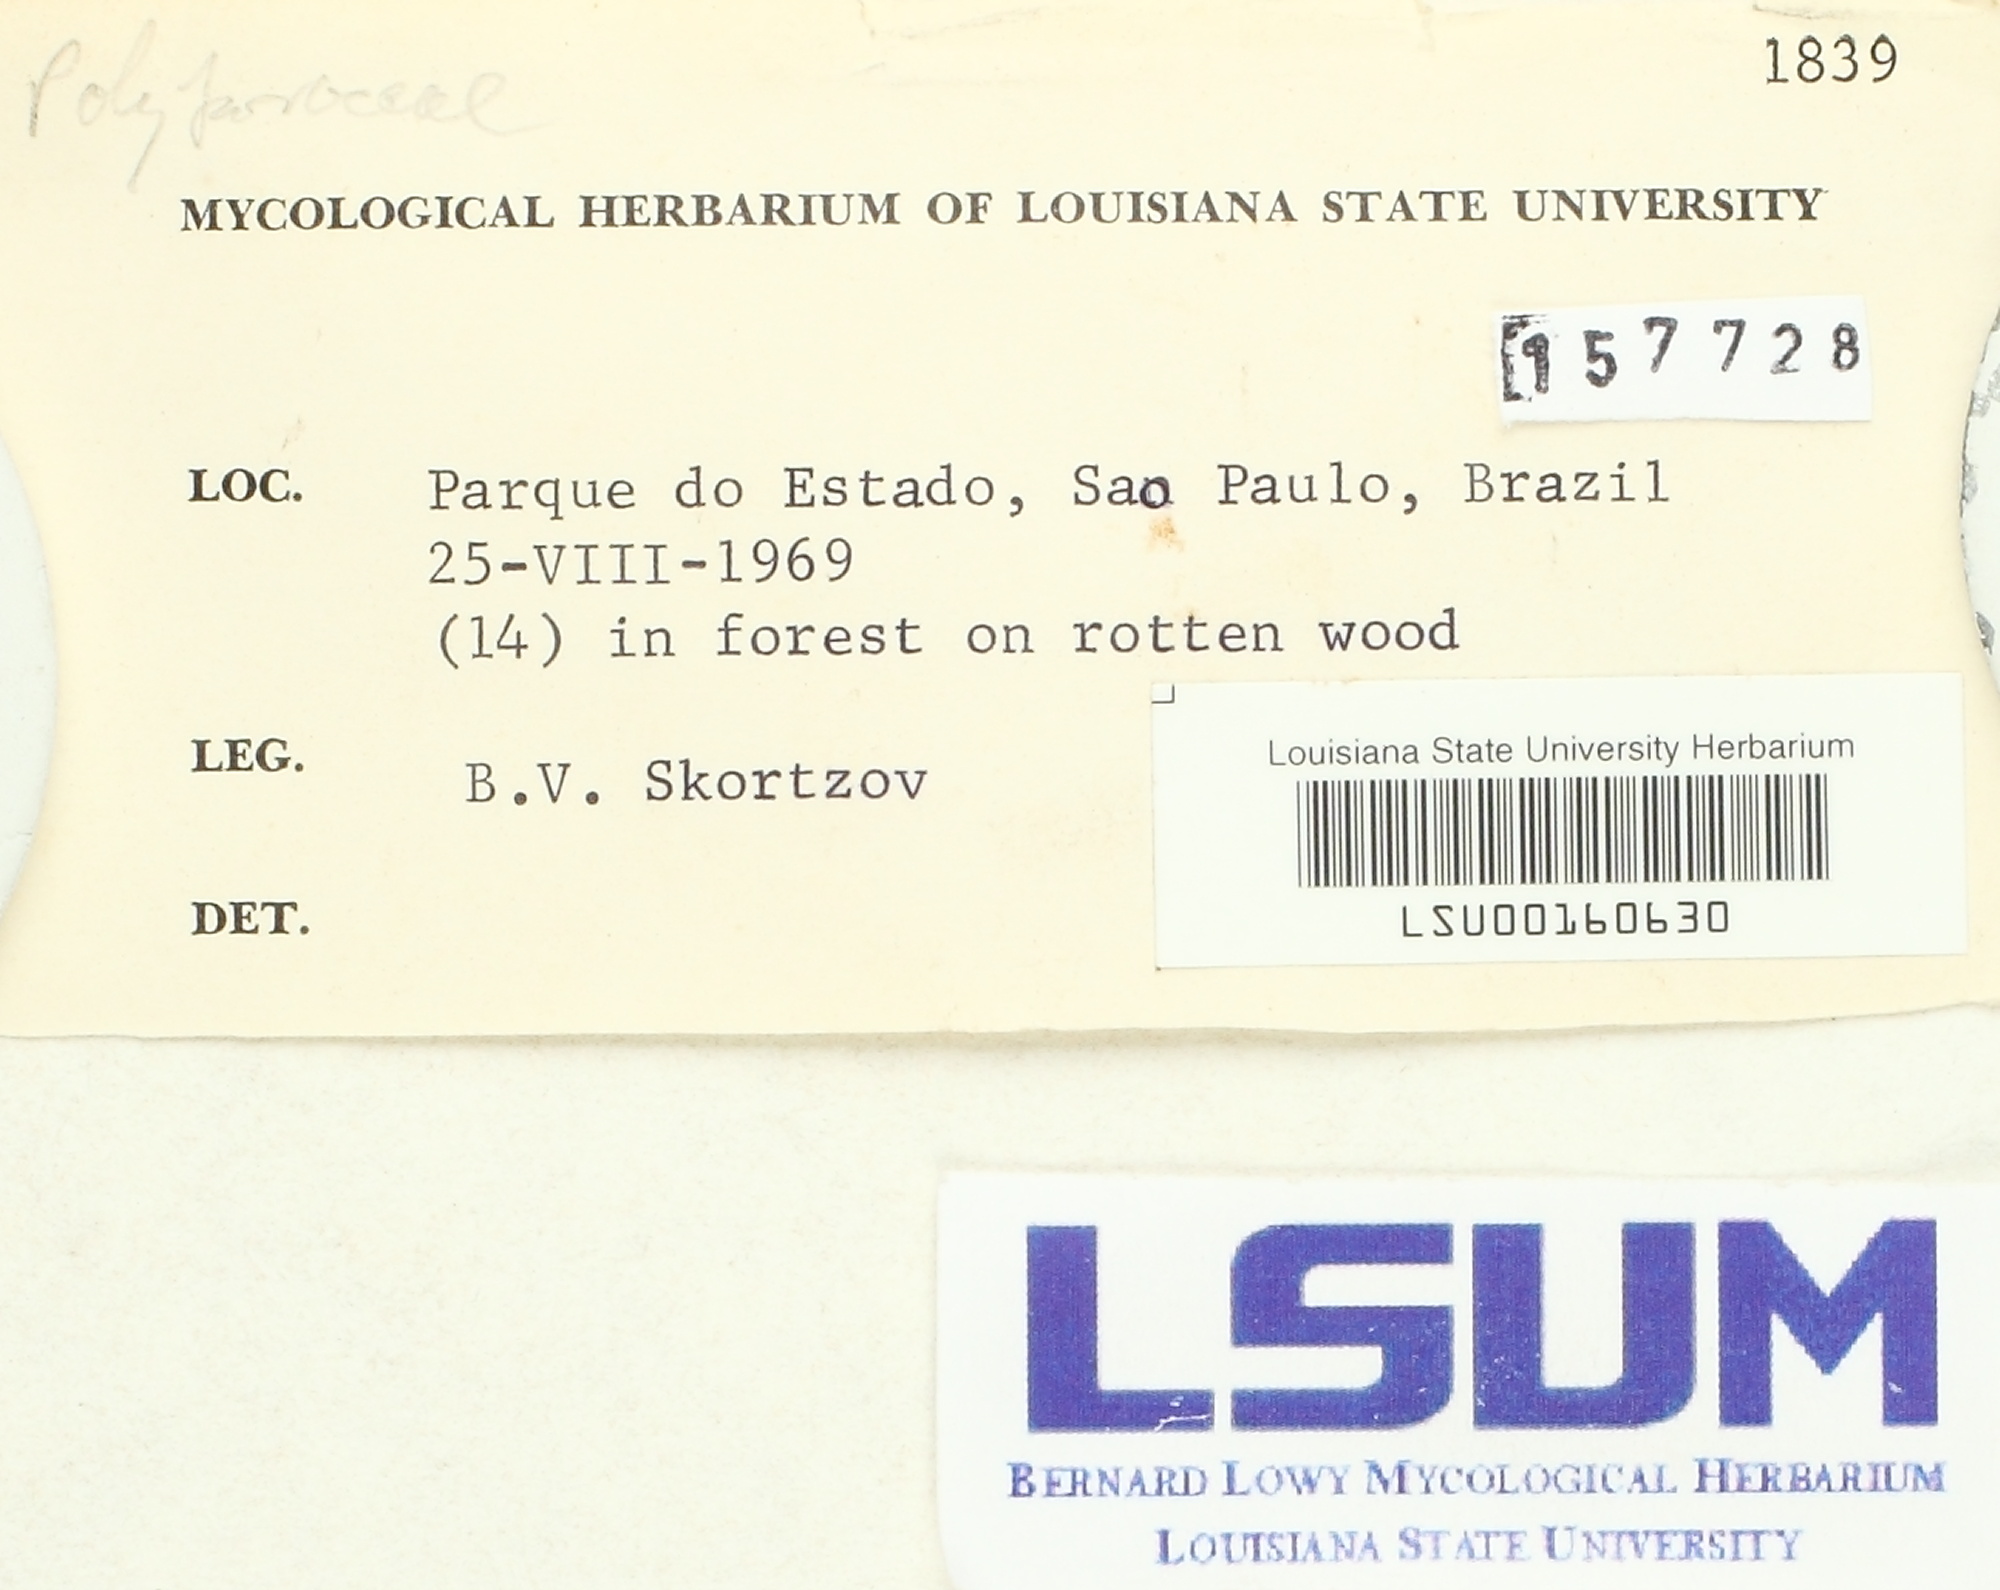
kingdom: Fungi
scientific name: Fungi
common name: Fungi
